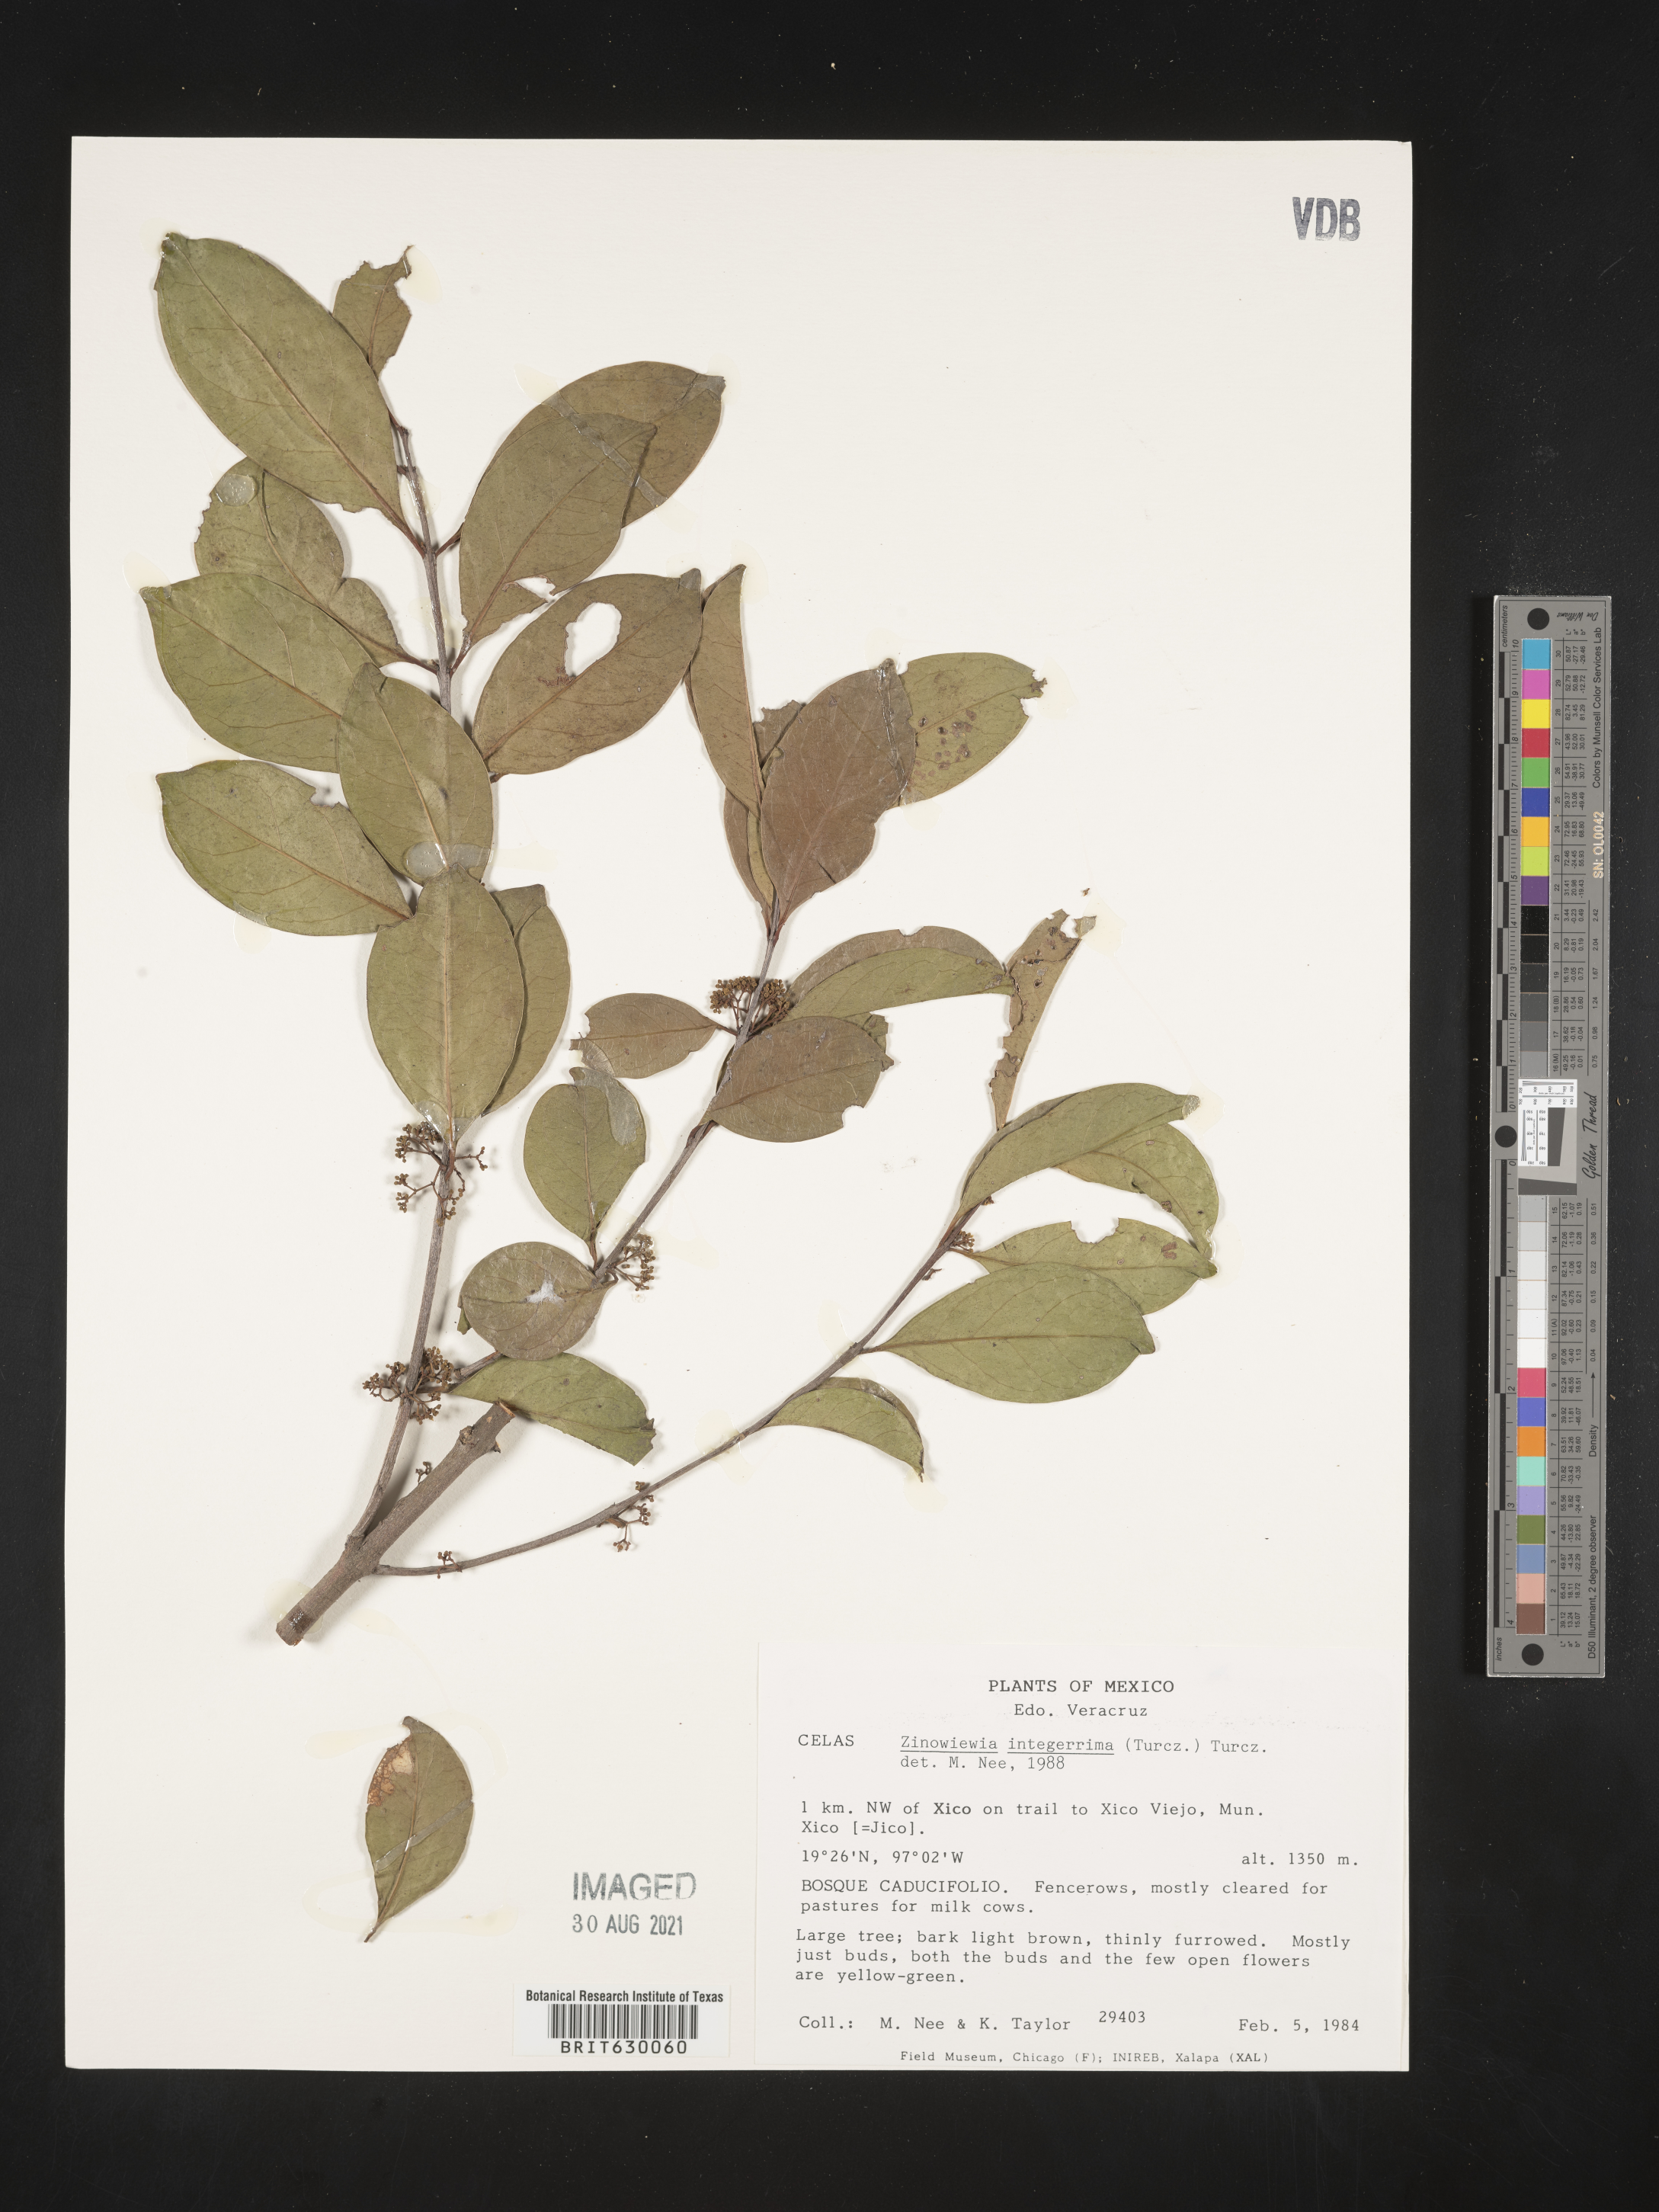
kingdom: Plantae
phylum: Tracheophyta
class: Magnoliopsida
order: Celastrales
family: Celastraceae
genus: Zinowiewia
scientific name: Zinowiewia integerrima
